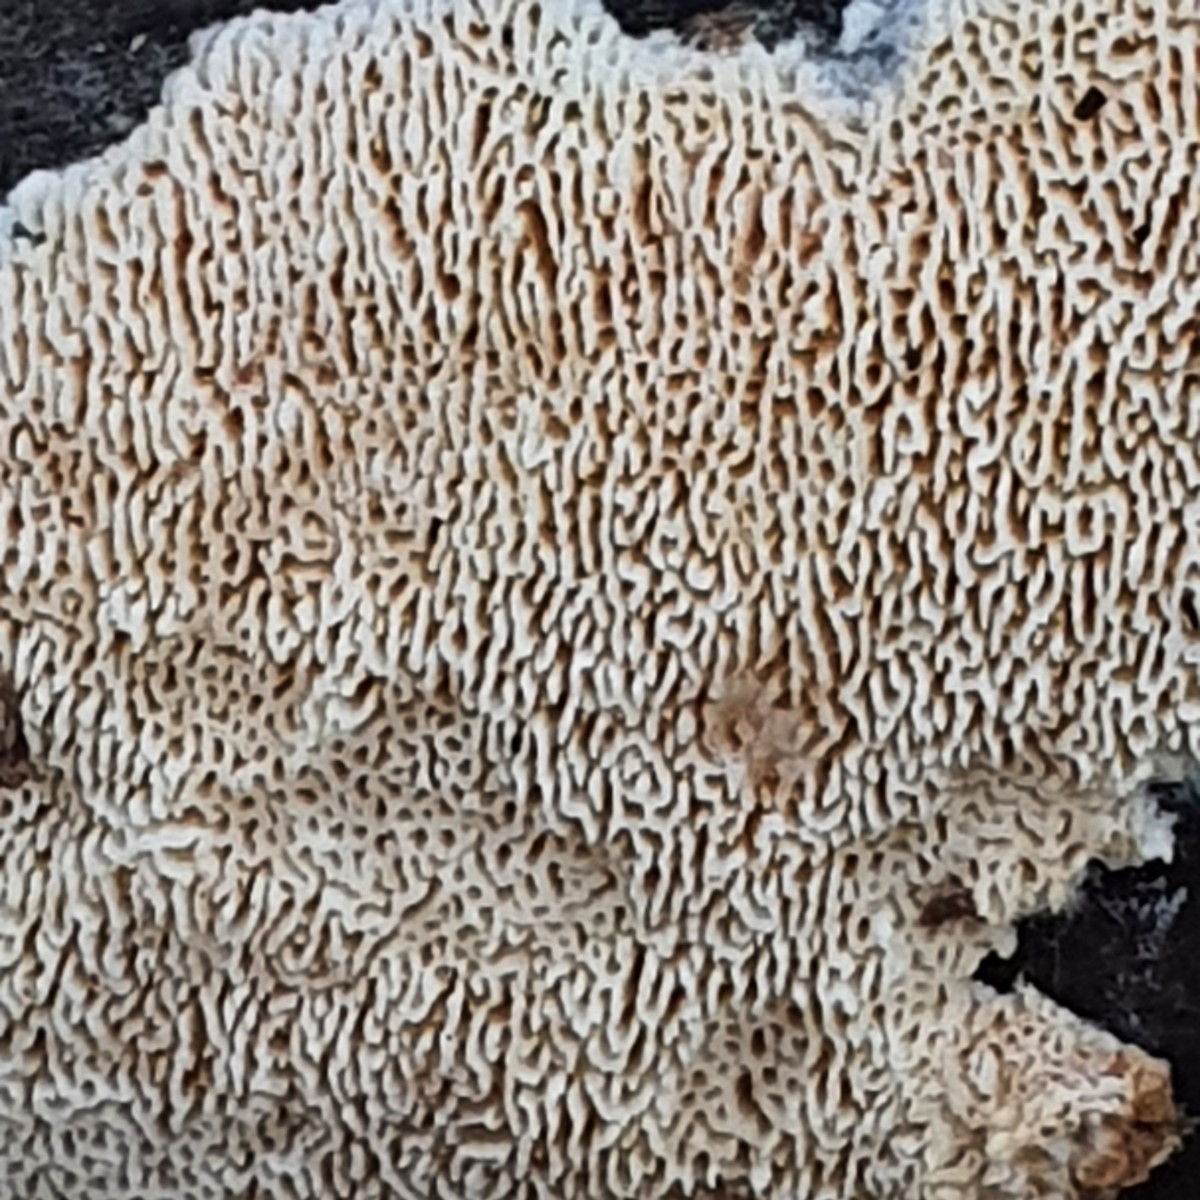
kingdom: Fungi
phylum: Basidiomycota
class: Agaricomycetes
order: Hymenochaetales
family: Schizoporaceae
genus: Xylodon
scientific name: Xylodon subtropicus
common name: labyrint-tandsvamp
